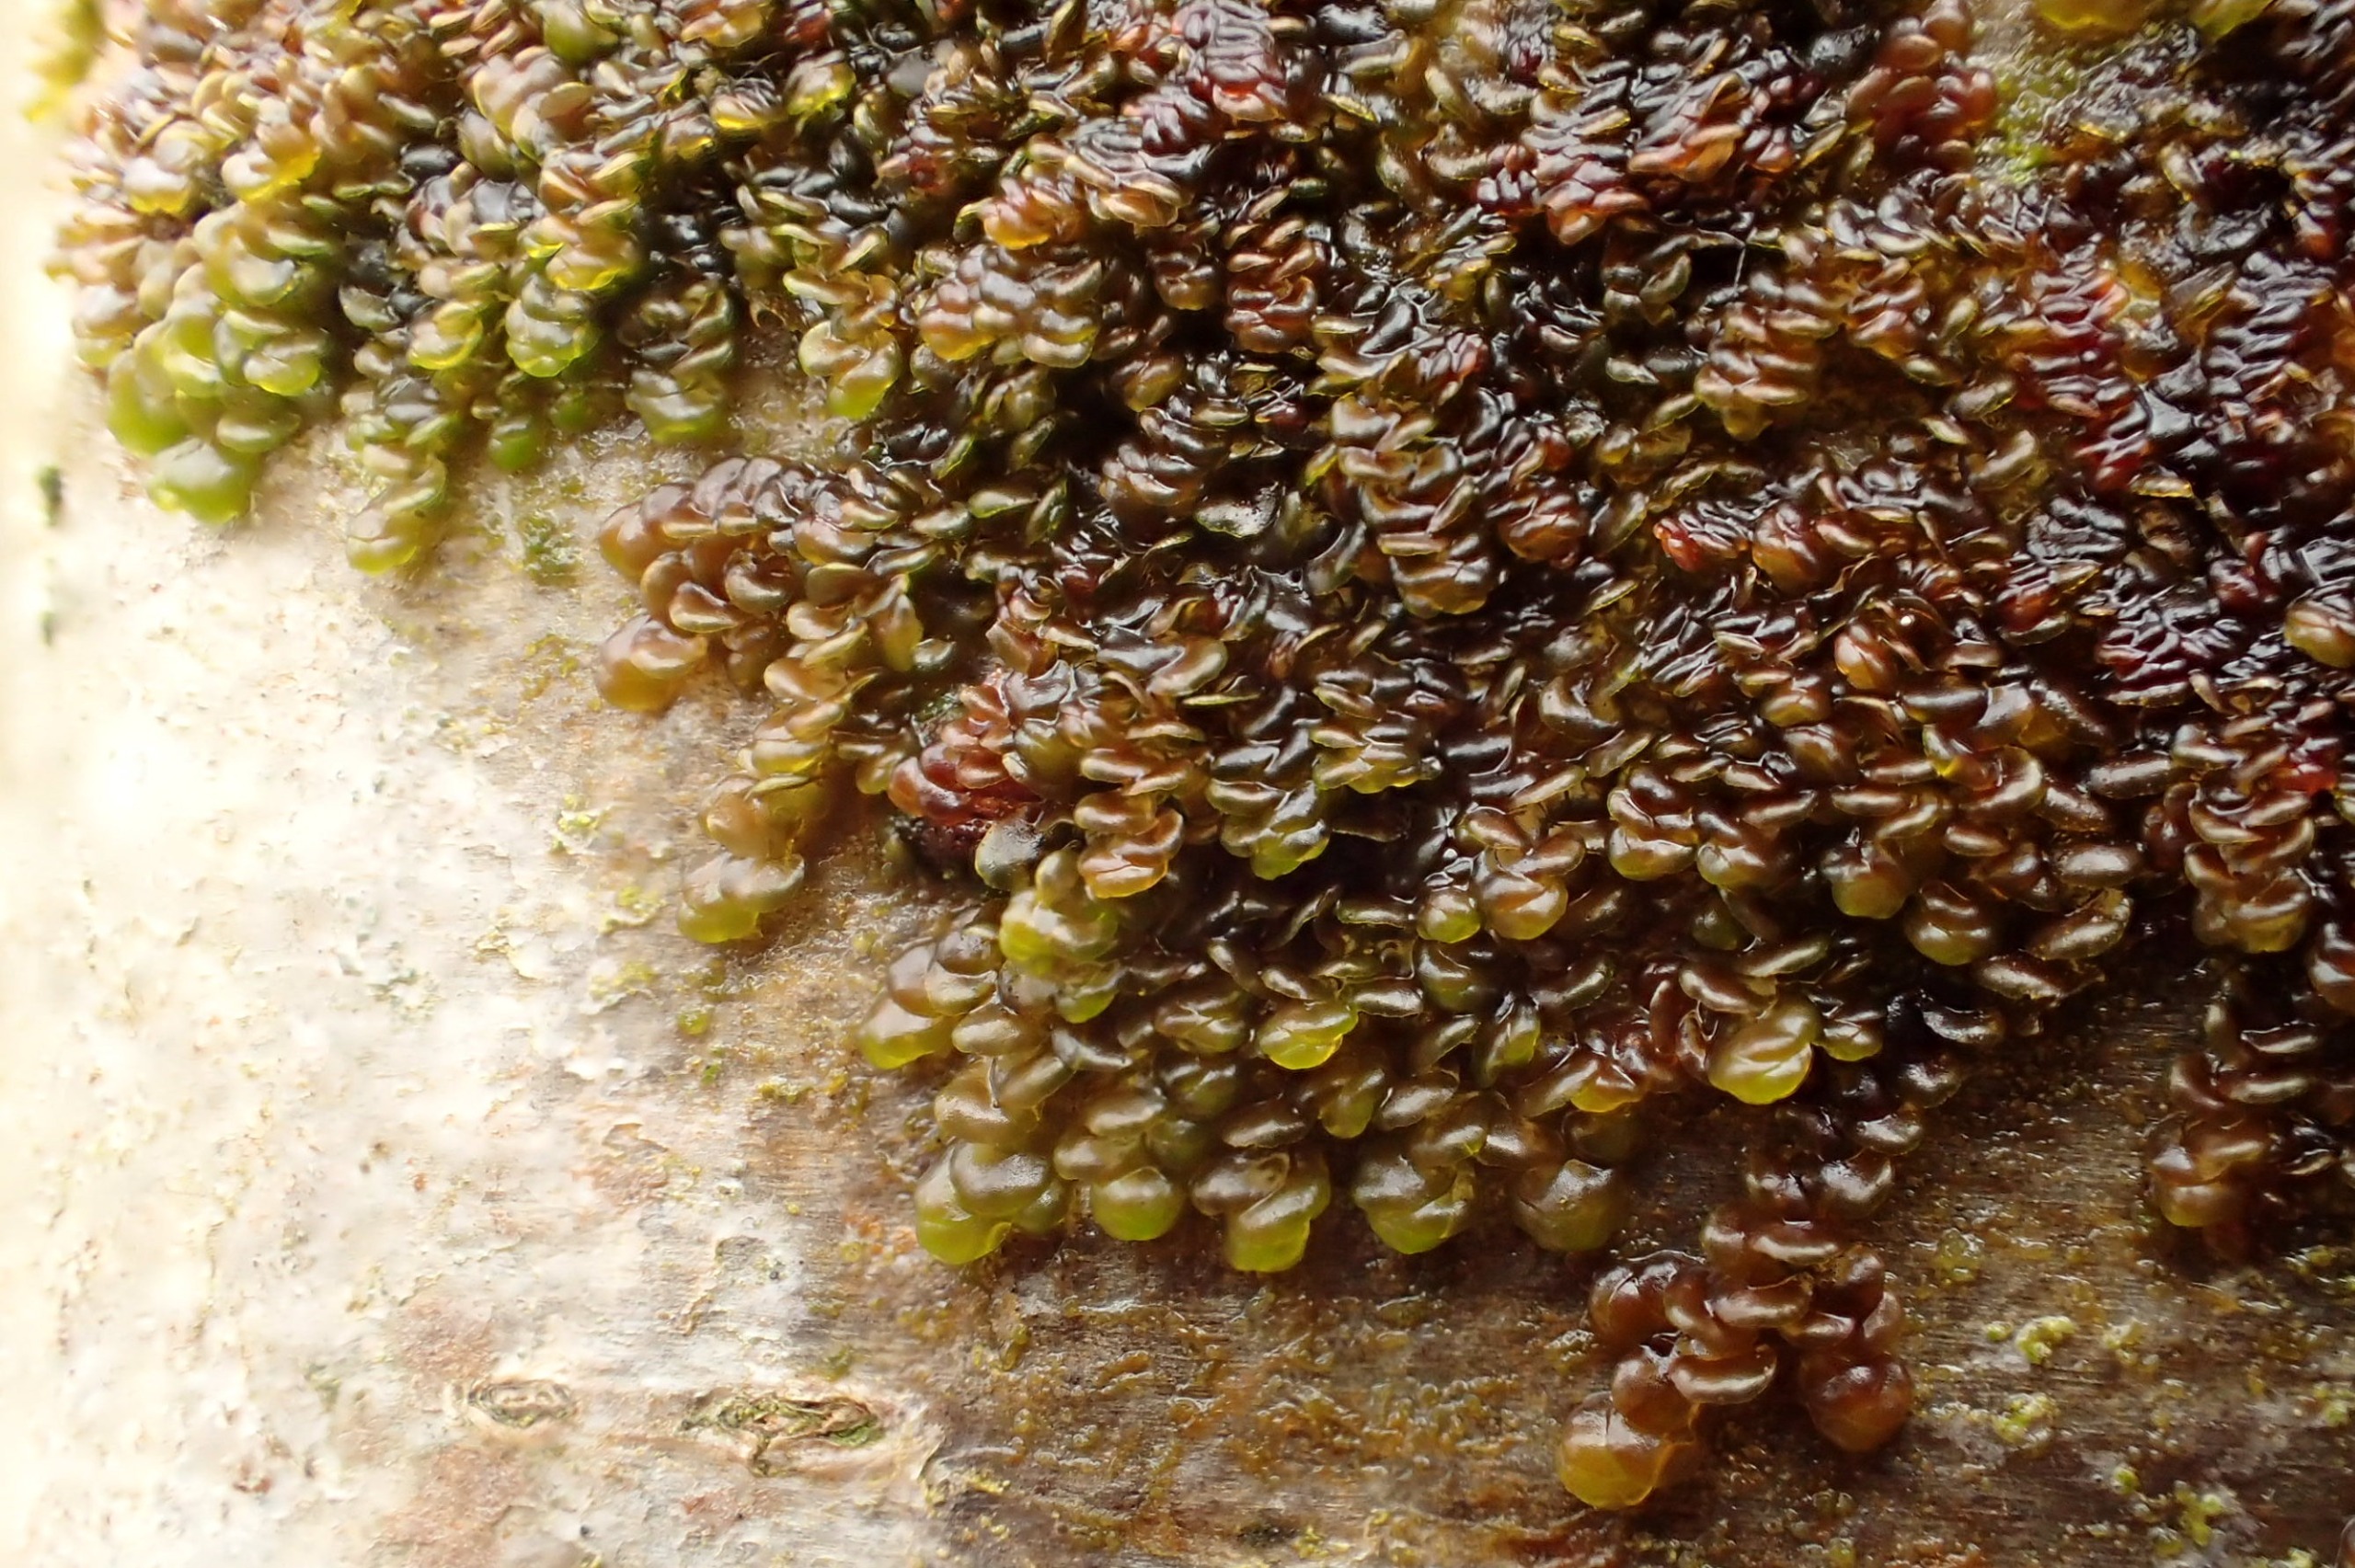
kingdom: Plantae
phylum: Marchantiophyta
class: Jungermanniopsida
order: Porellales
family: Frullaniaceae
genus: Frullania
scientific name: Frullania dilatata
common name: Mat bronzemos
